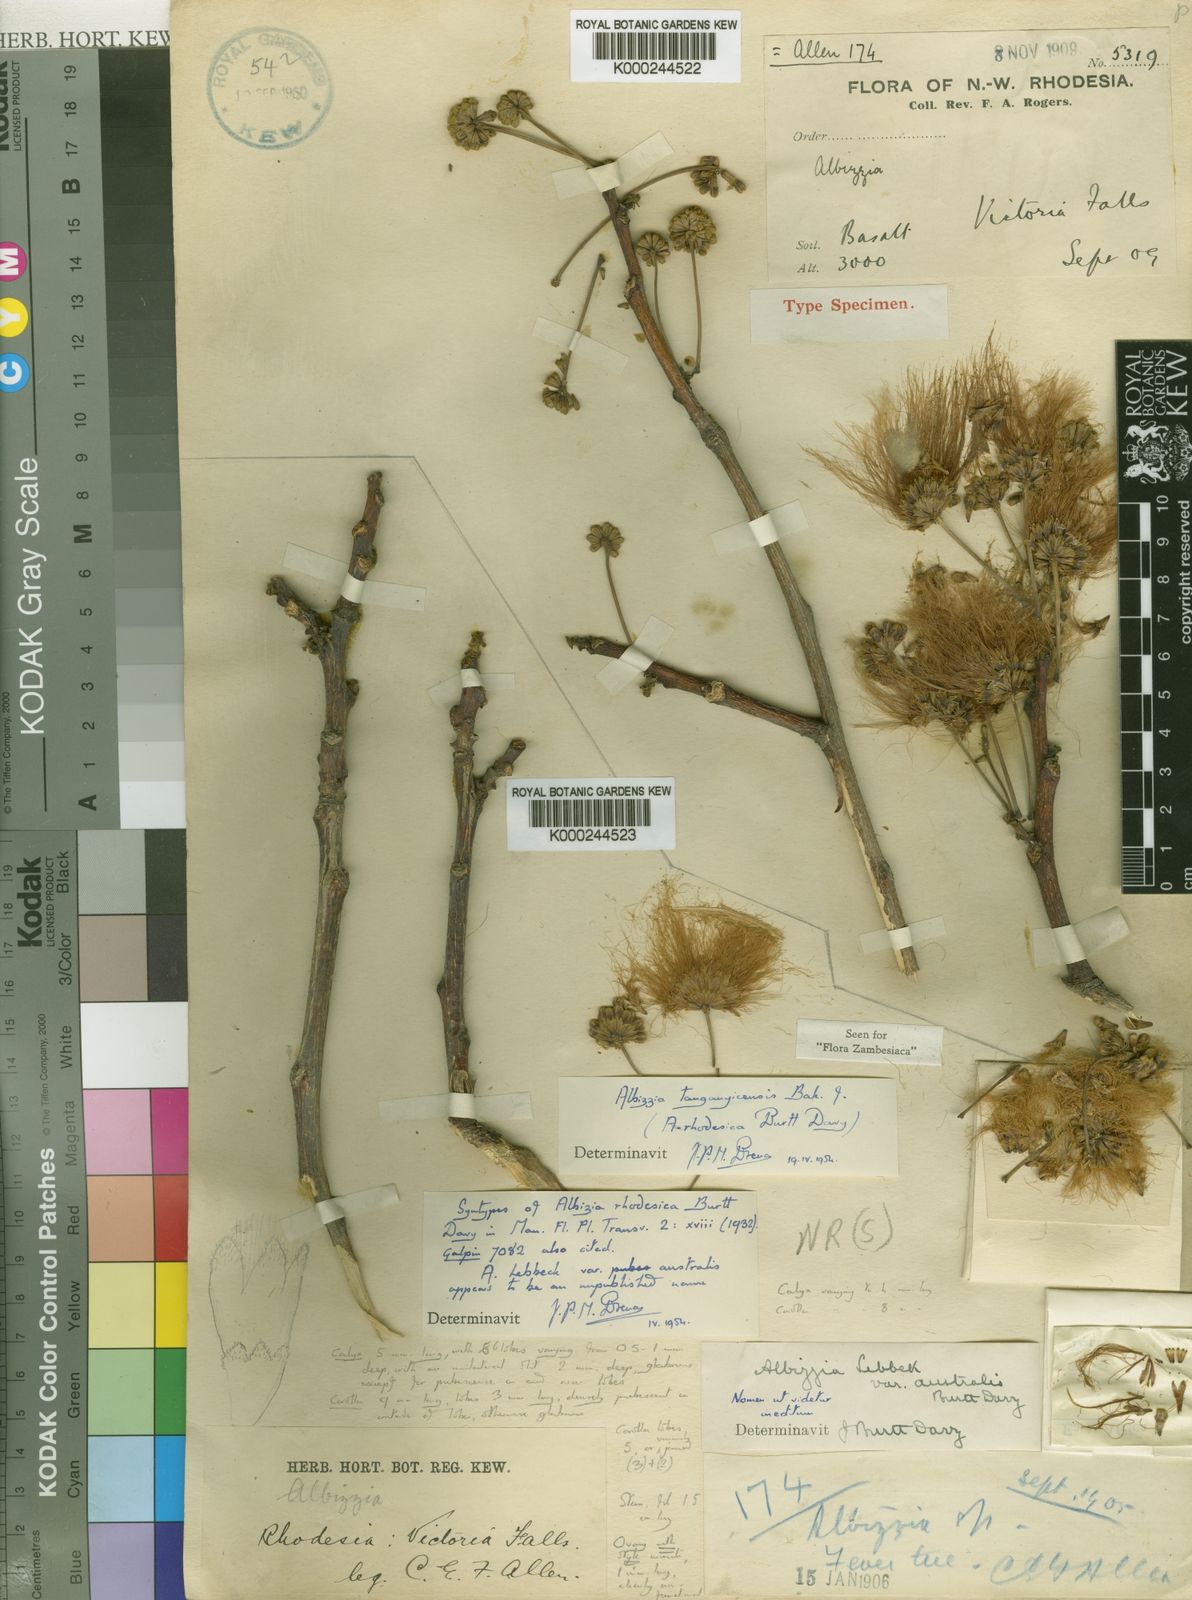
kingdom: Plantae
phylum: Tracheophyta
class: Magnoliopsida
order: Fabales
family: Fabaceae
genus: Albizia
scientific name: Albizia tanganyicensis
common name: Paperbark false thorn
